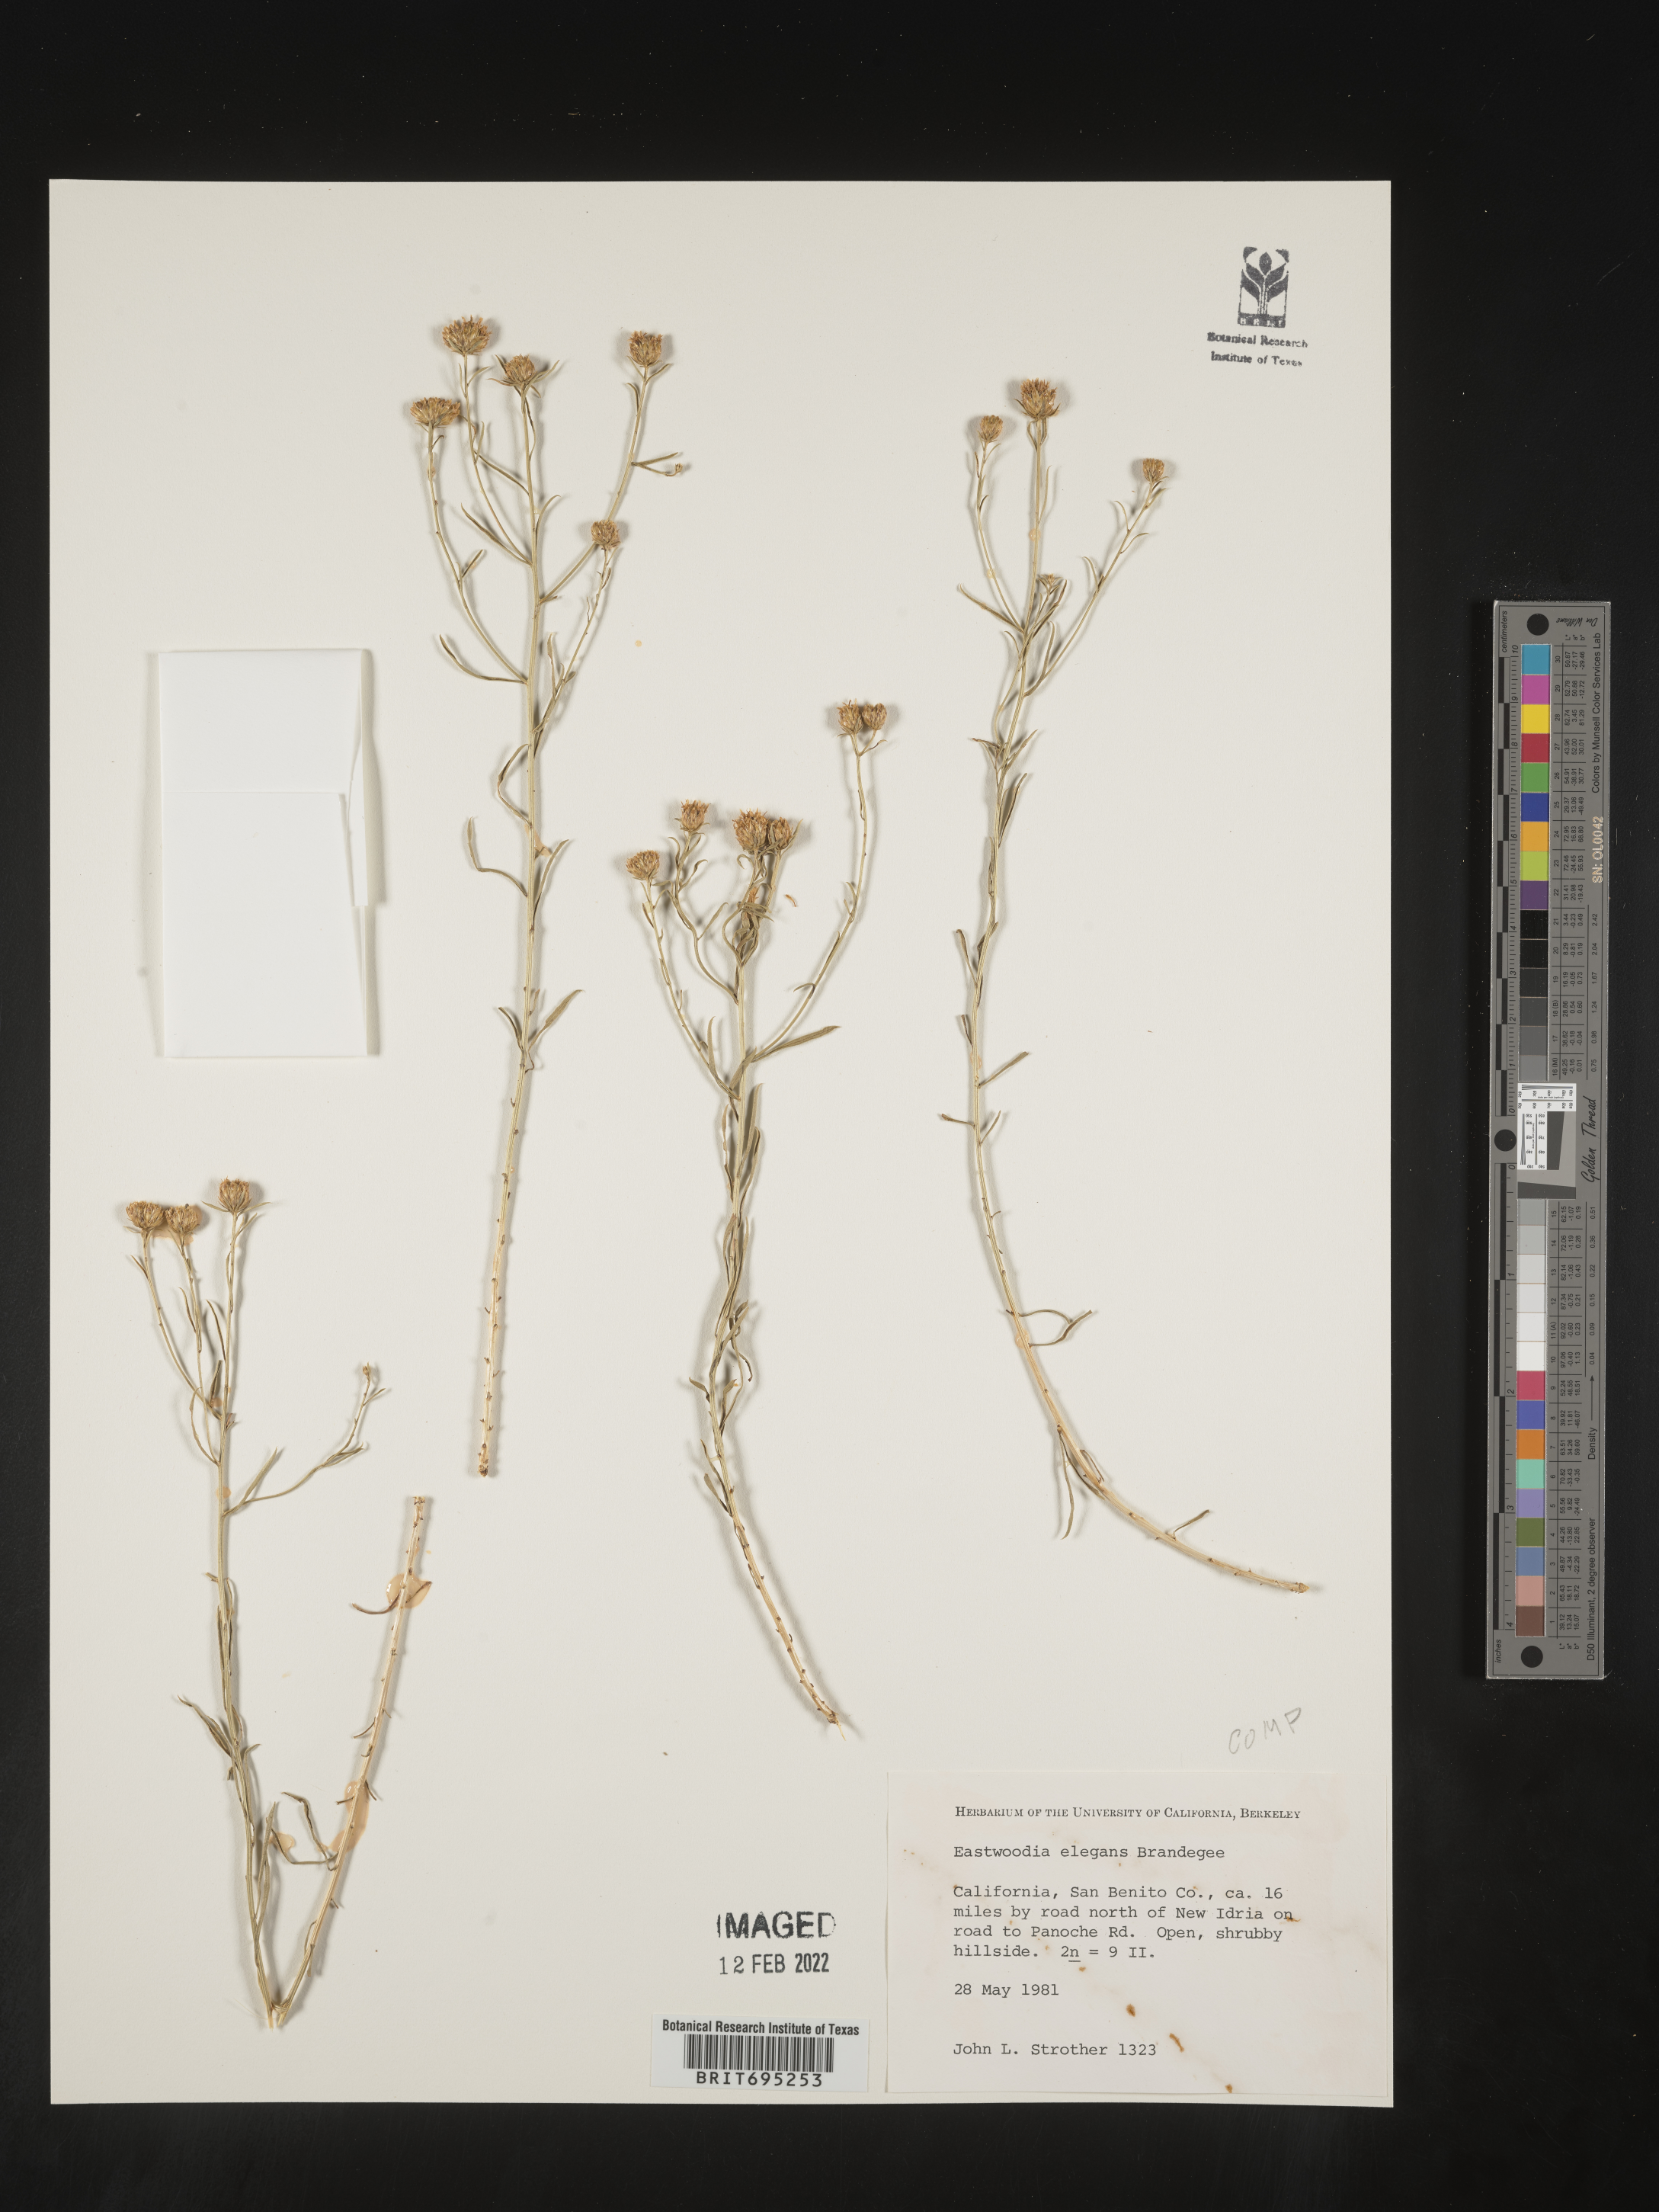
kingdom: Plantae
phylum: Tracheophyta
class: Magnoliopsida
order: Asterales
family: Asteraceae
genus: Eastwoodia
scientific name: Eastwoodia
